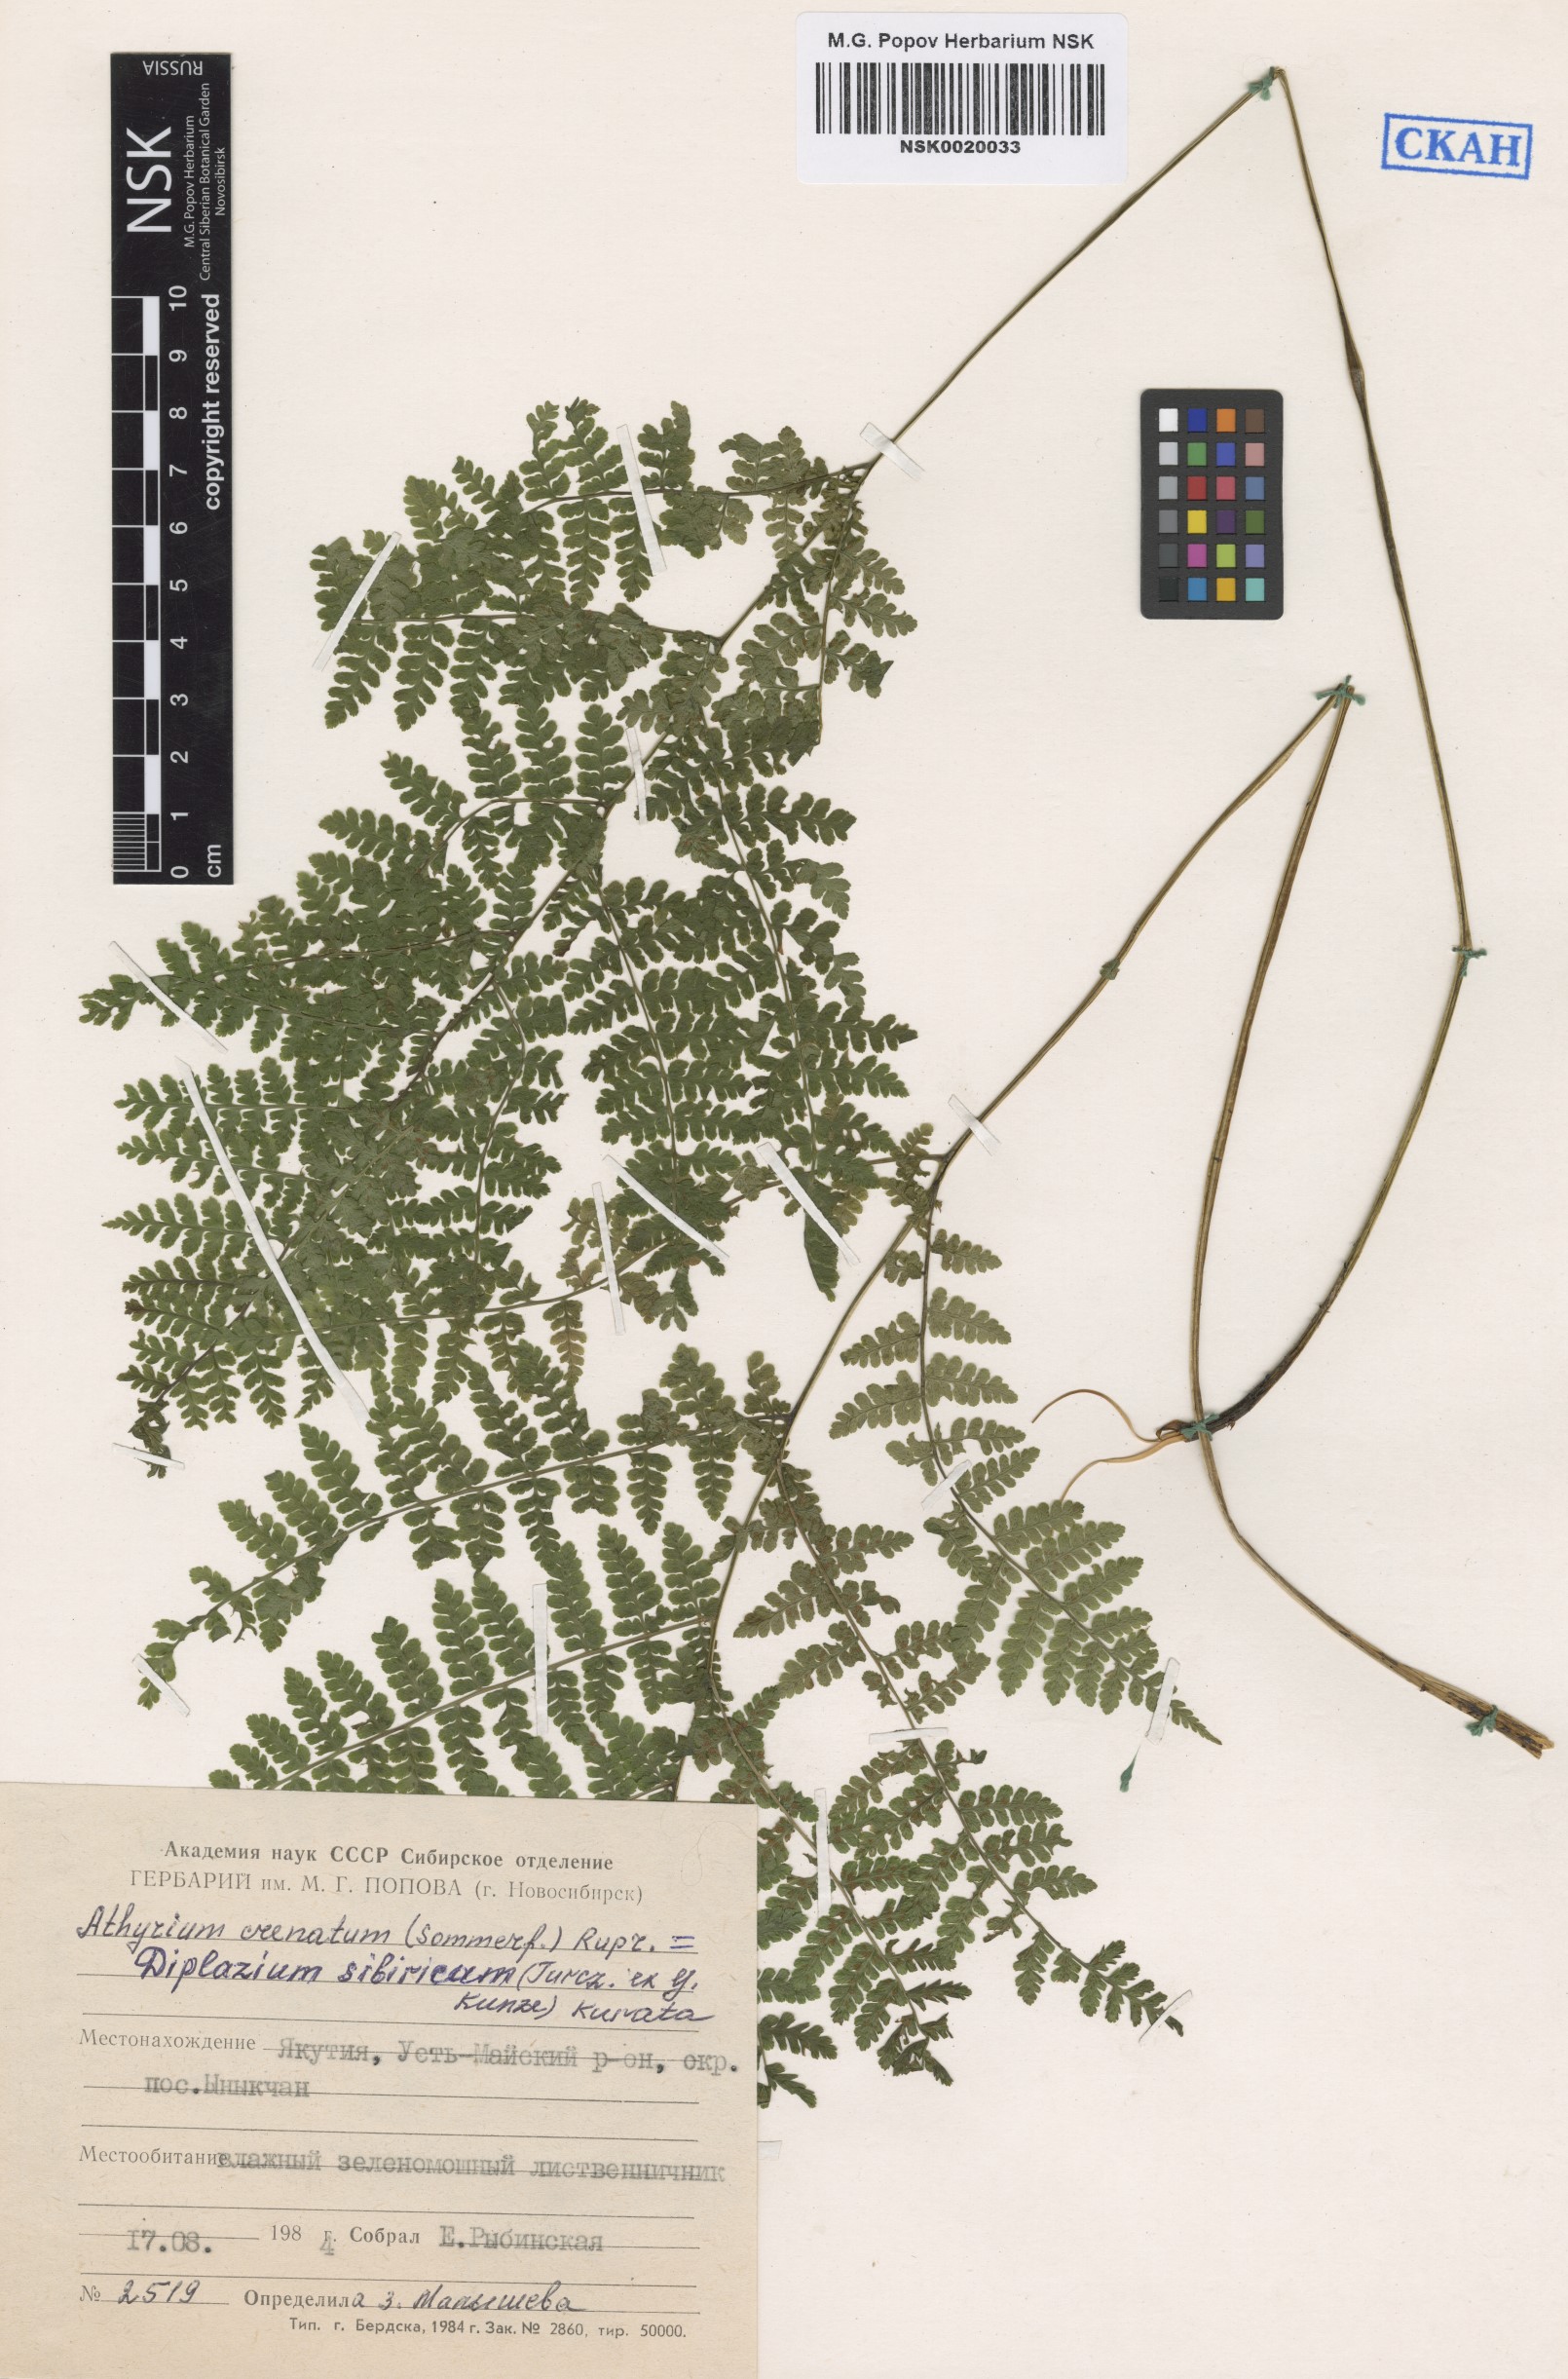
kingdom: Plantae
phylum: Tracheophyta
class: Polypodiopsida
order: Polypodiales
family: Athyriaceae
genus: Diplazium
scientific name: Diplazium sibiricum
